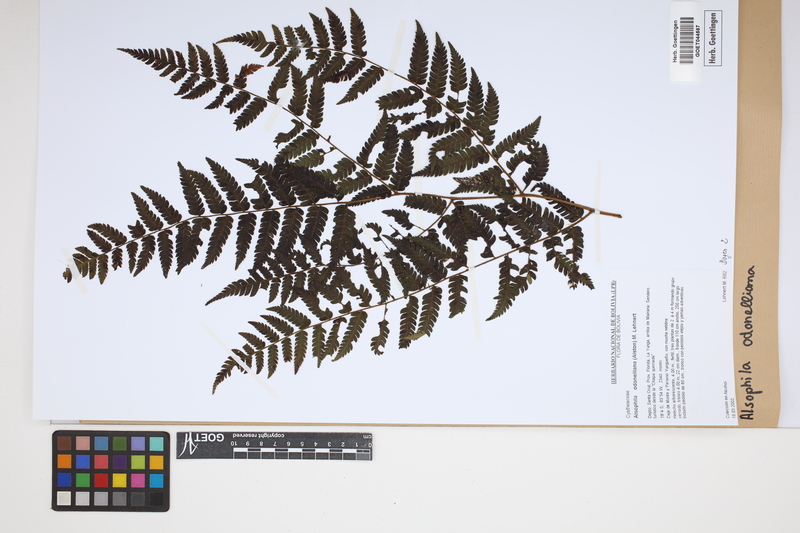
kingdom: Plantae
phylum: Tracheophyta
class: Polypodiopsida
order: Cyatheales
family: Cyatheaceae
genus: Alsophila
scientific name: Alsophila odonelliana
